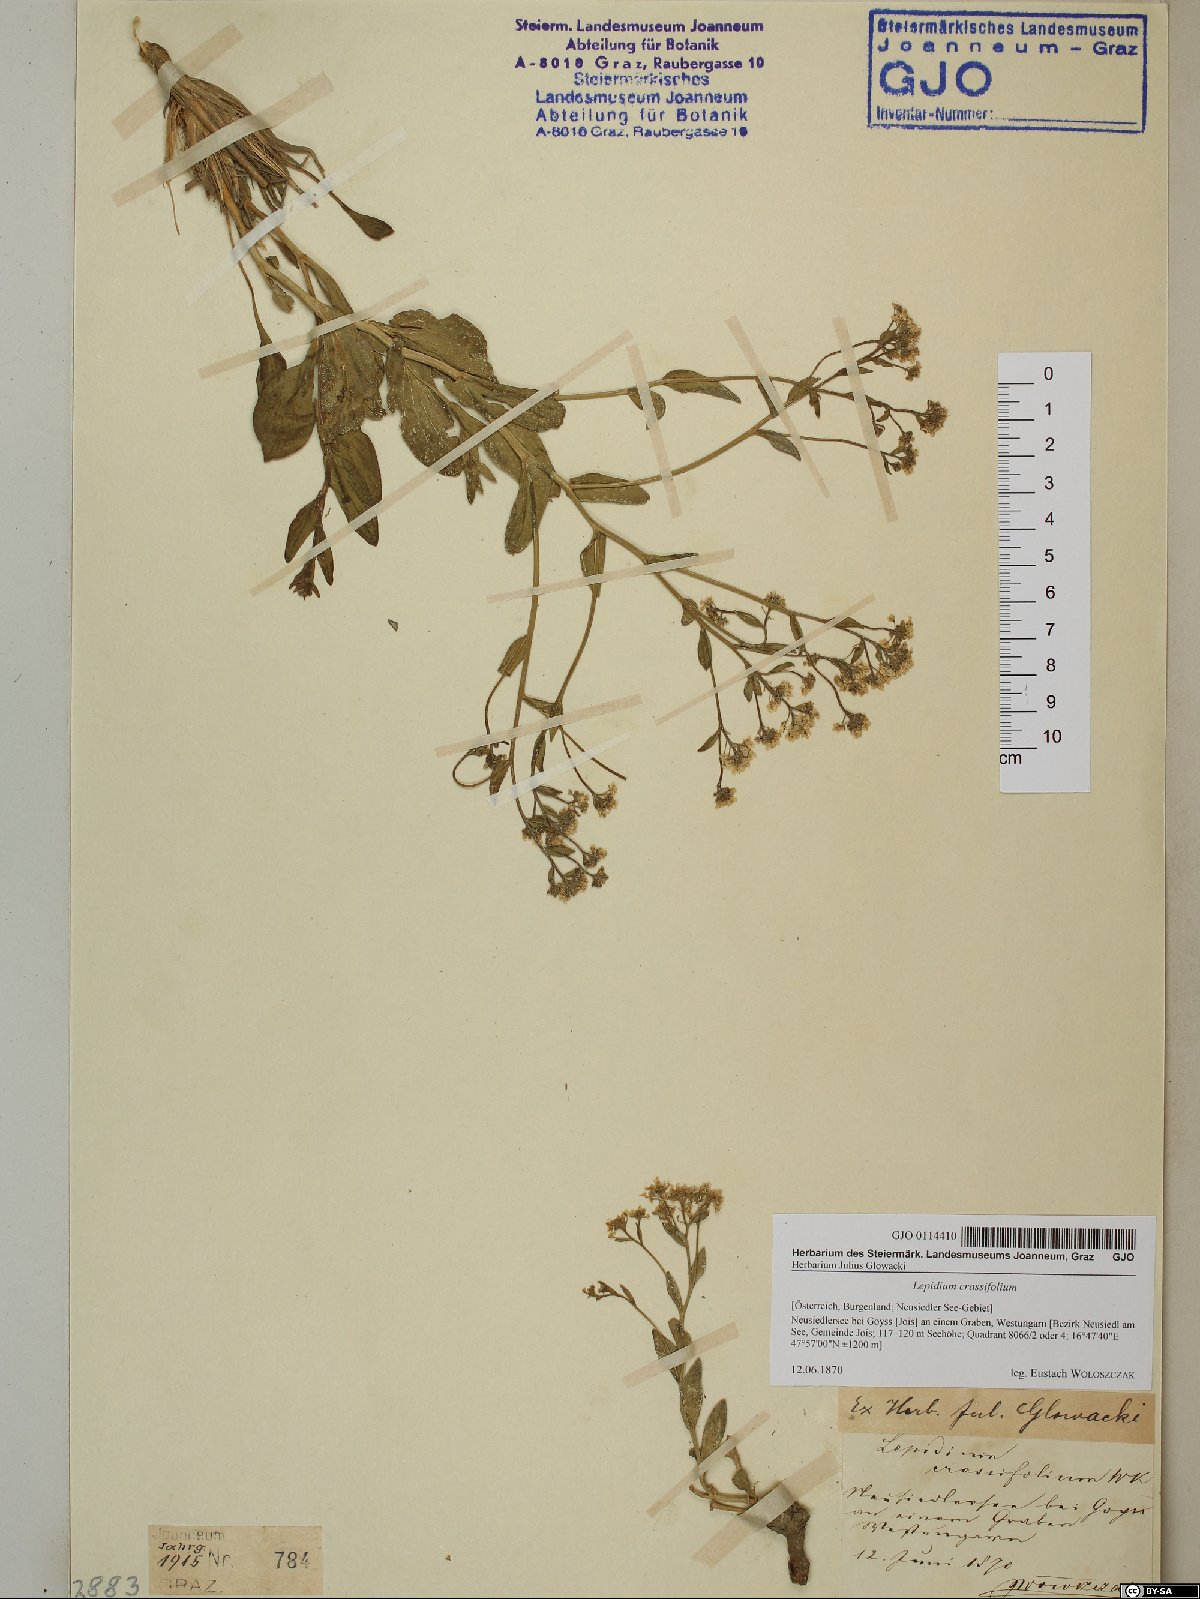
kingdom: Plantae
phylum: Tracheophyta
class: Magnoliopsida
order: Brassicales
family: Brassicaceae
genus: Lepidium
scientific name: Lepidium cartilagineum
